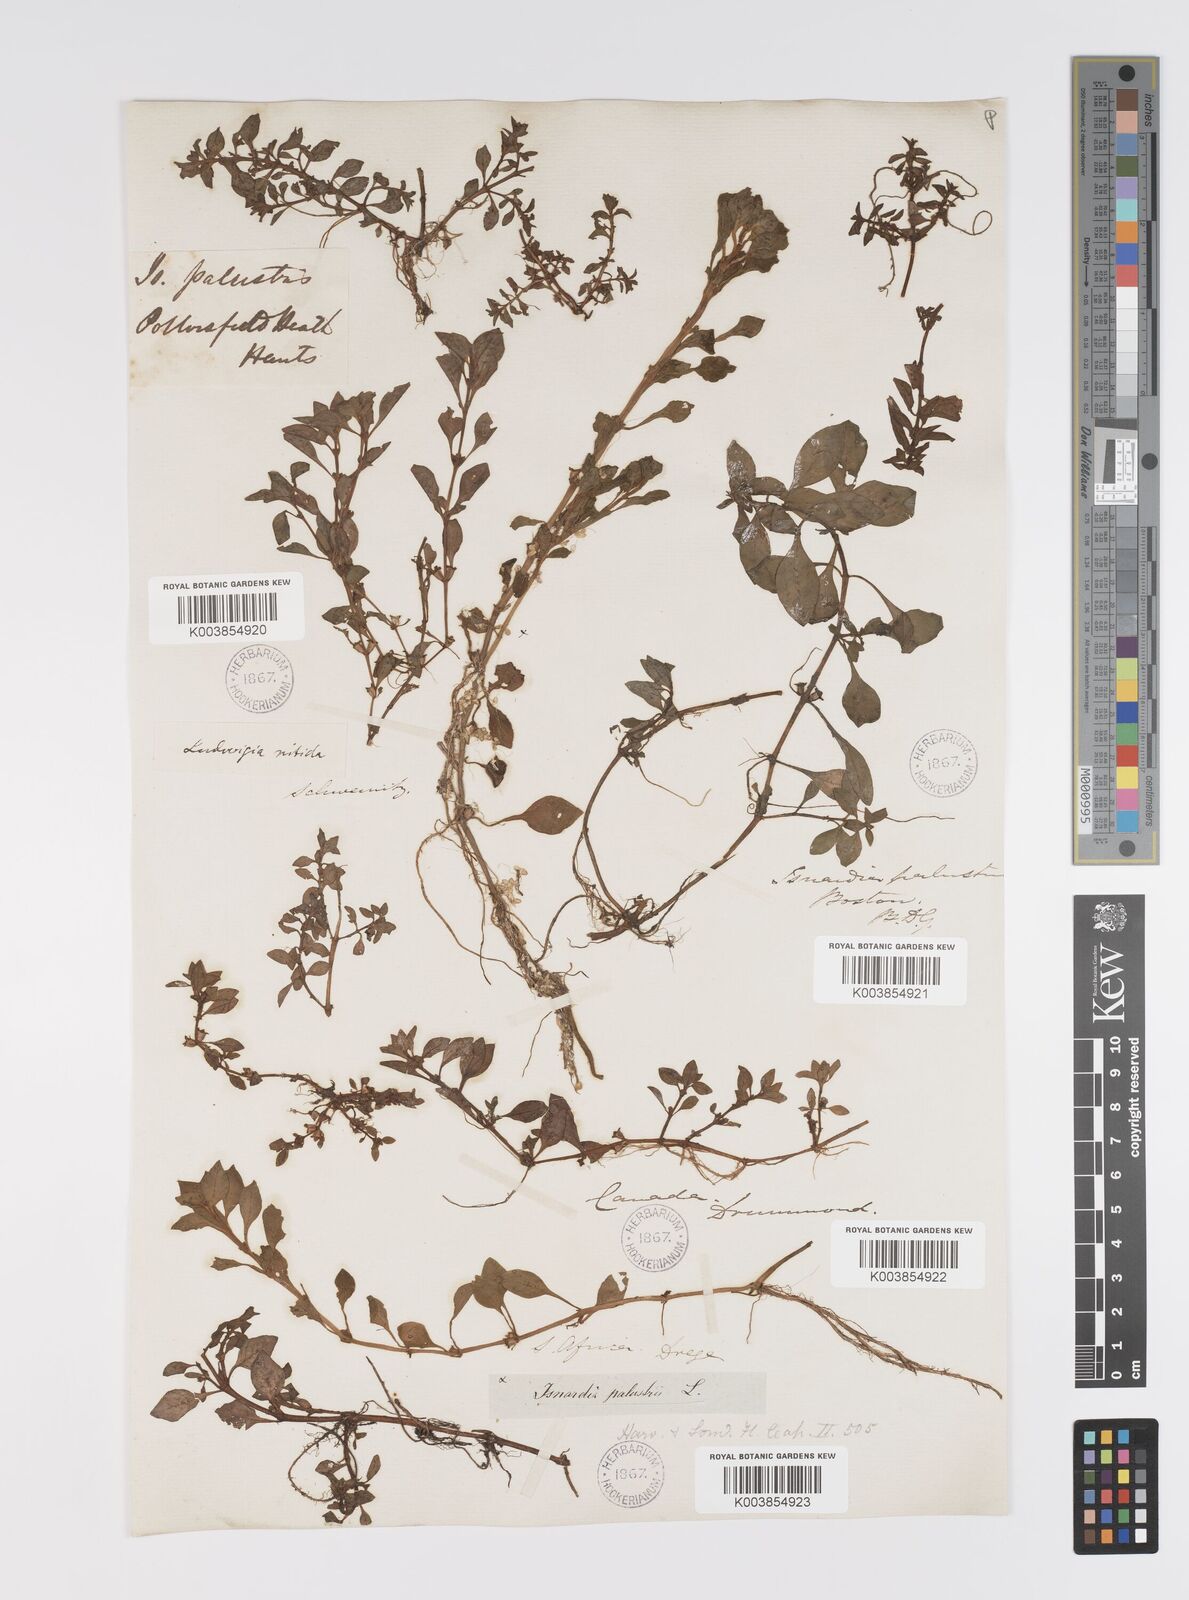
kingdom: Plantae
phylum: Tracheophyta
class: Magnoliopsida
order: Myrtales
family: Onagraceae
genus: Ludwigia
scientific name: Ludwigia palustris
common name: Hampshire-purslane
